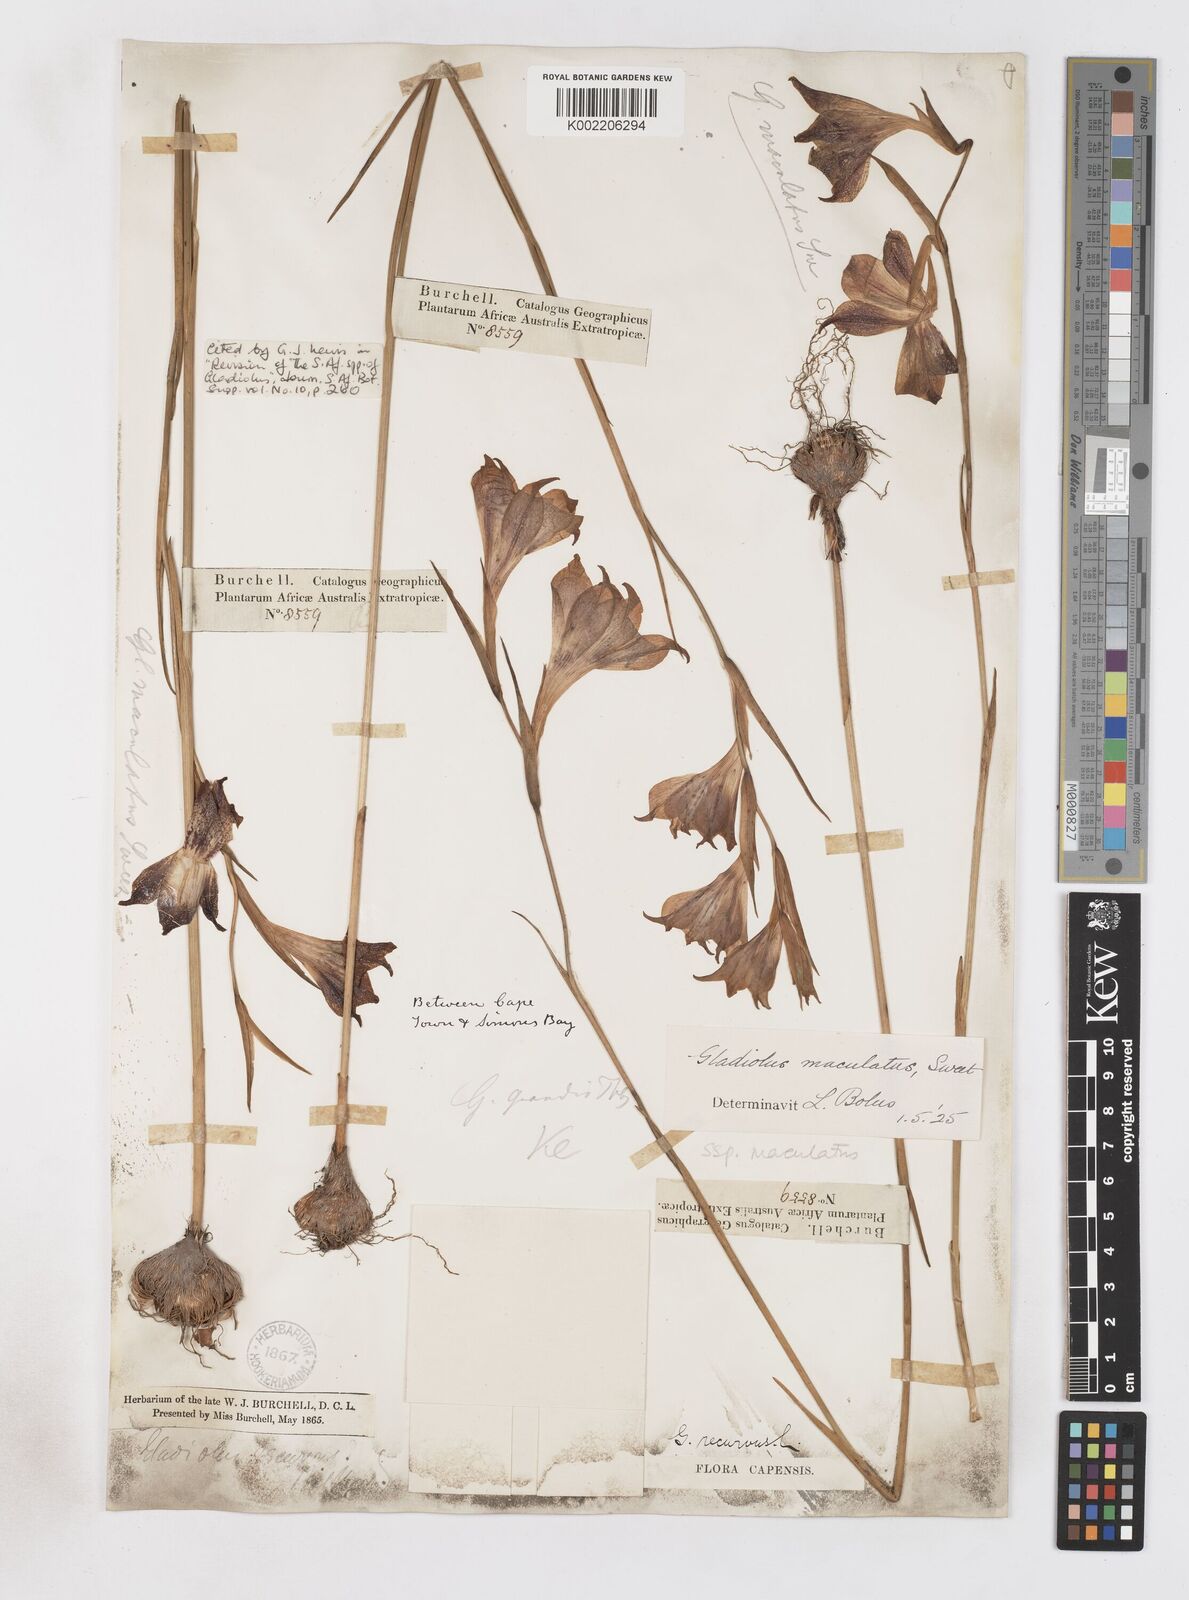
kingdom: Plantae
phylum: Tracheophyta
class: Liliopsida
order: Asparagales
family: Iridaceae
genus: Gladiolus
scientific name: Gladiolus maculatus
